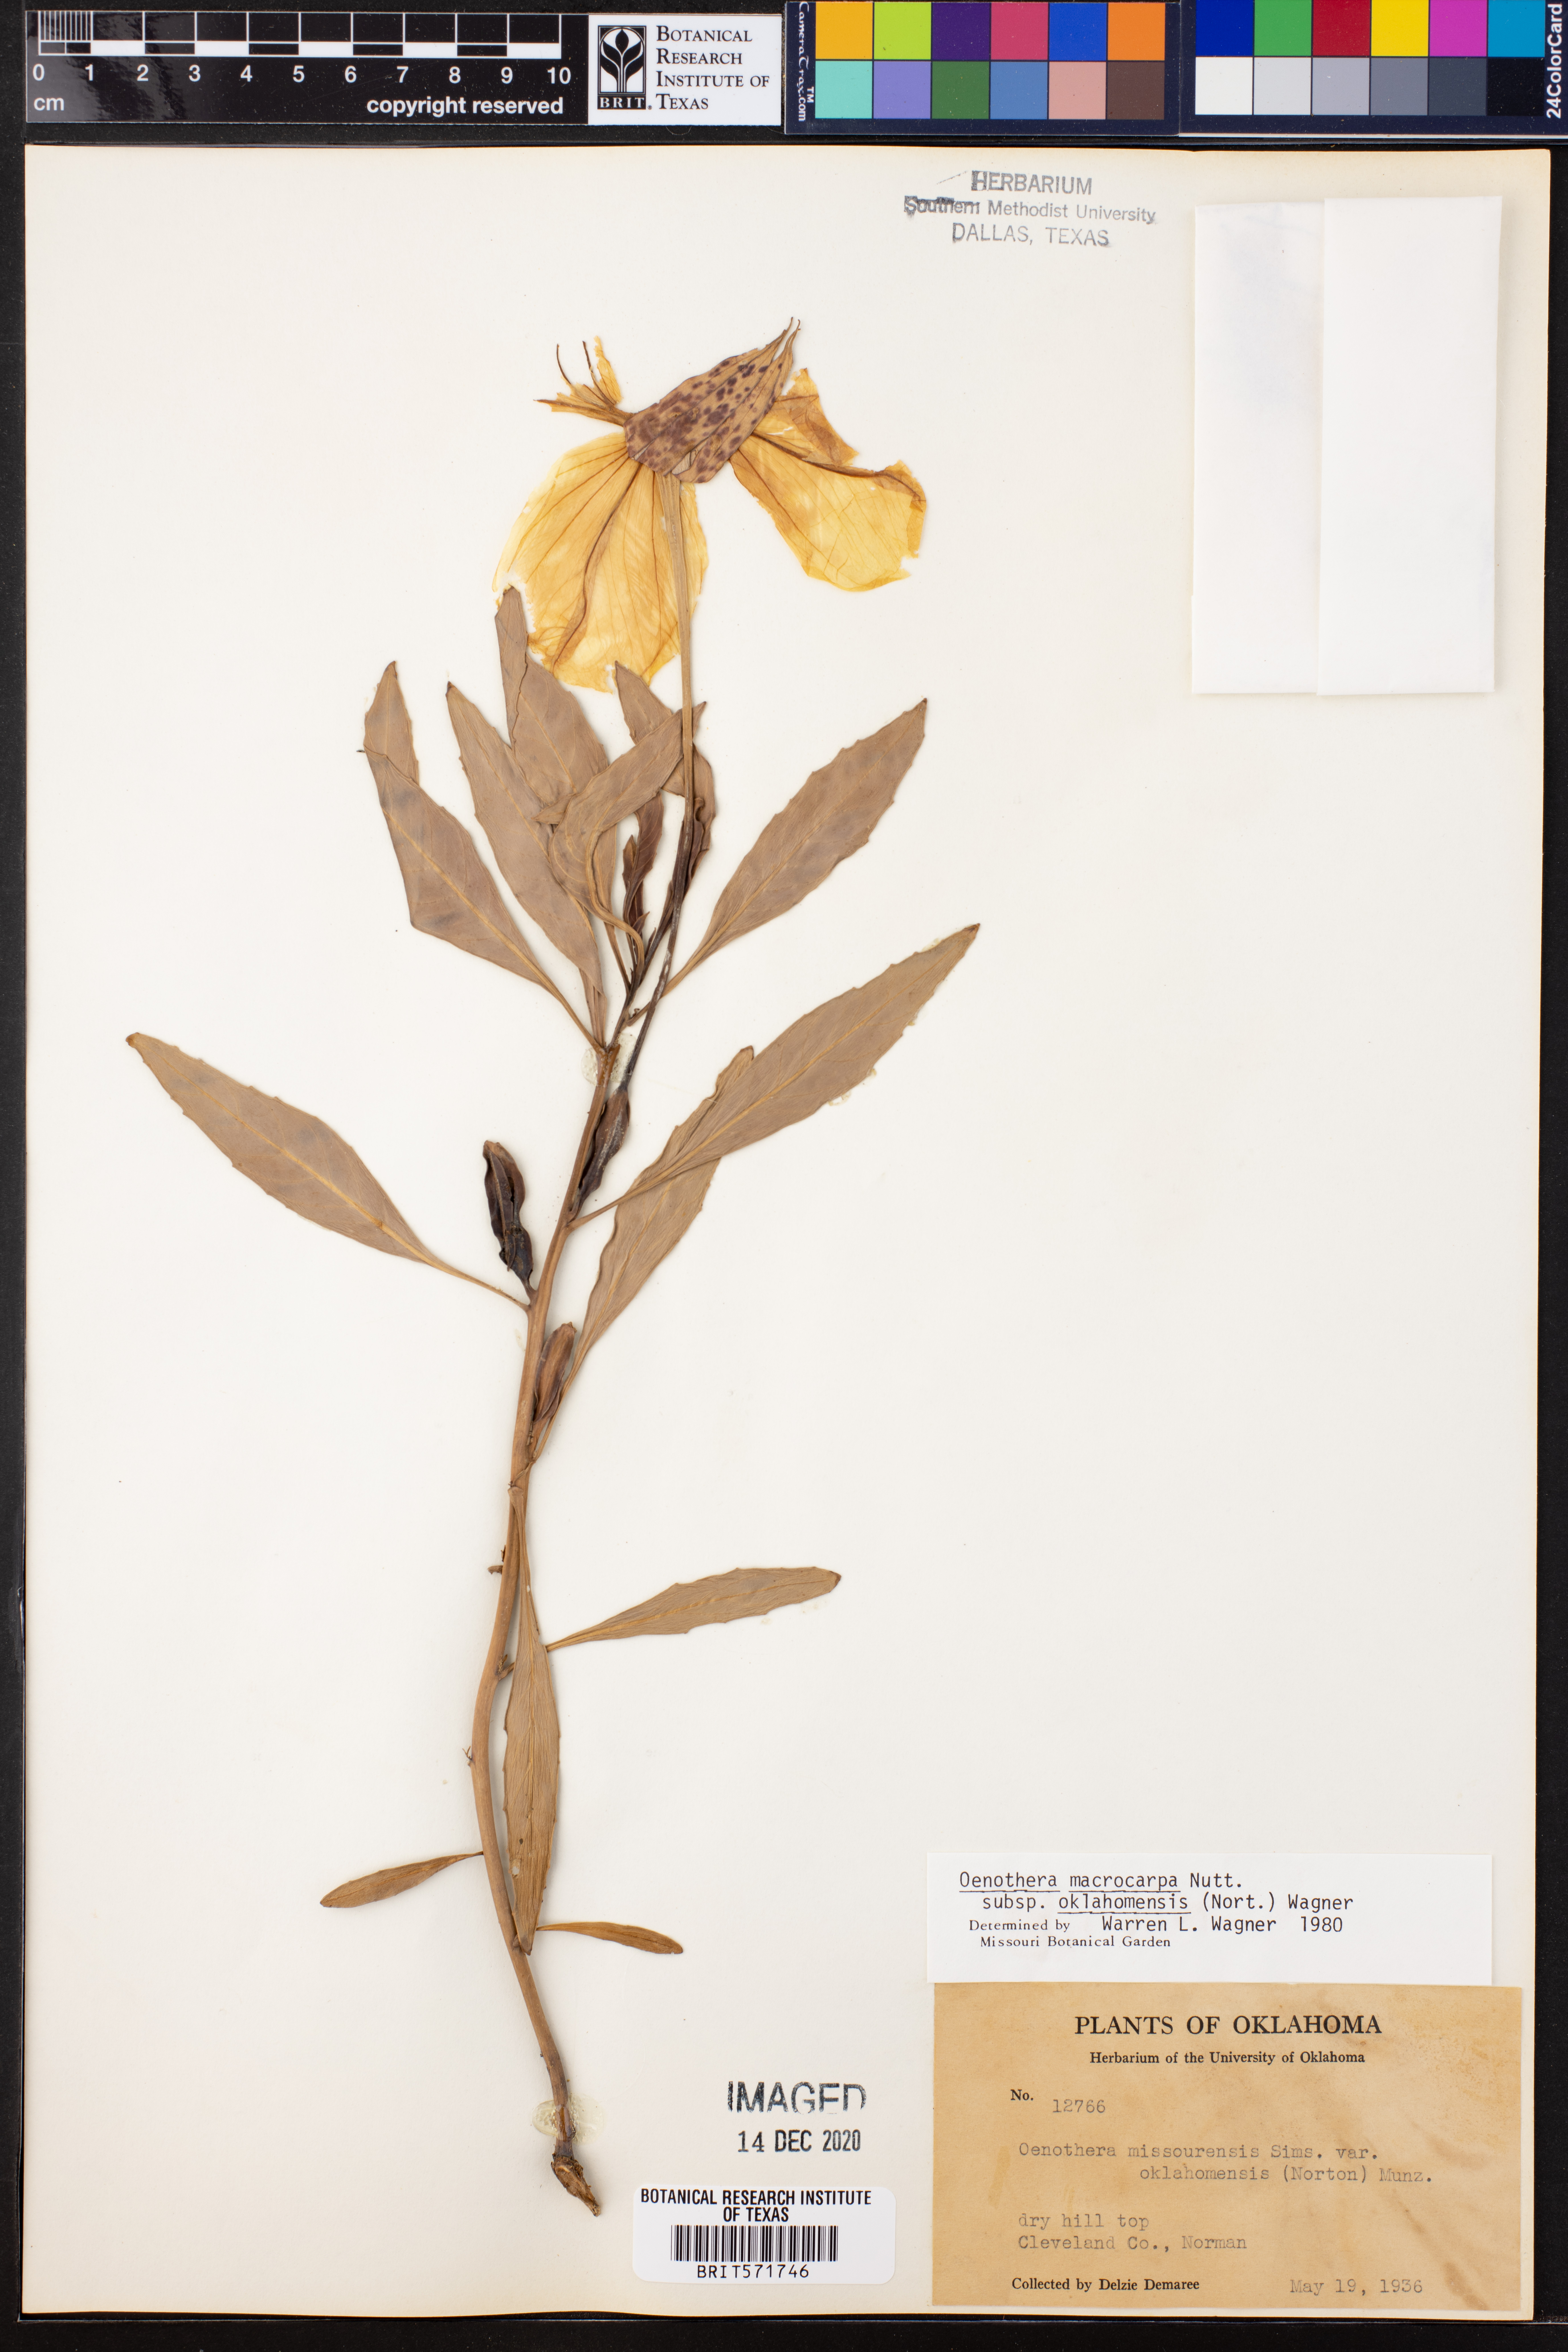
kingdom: Plantae
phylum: Tracheophyta
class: Magnoliopsida
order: Myrtales
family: Onagraceae
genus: Oenothera
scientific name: Oenothera macrocarpa
